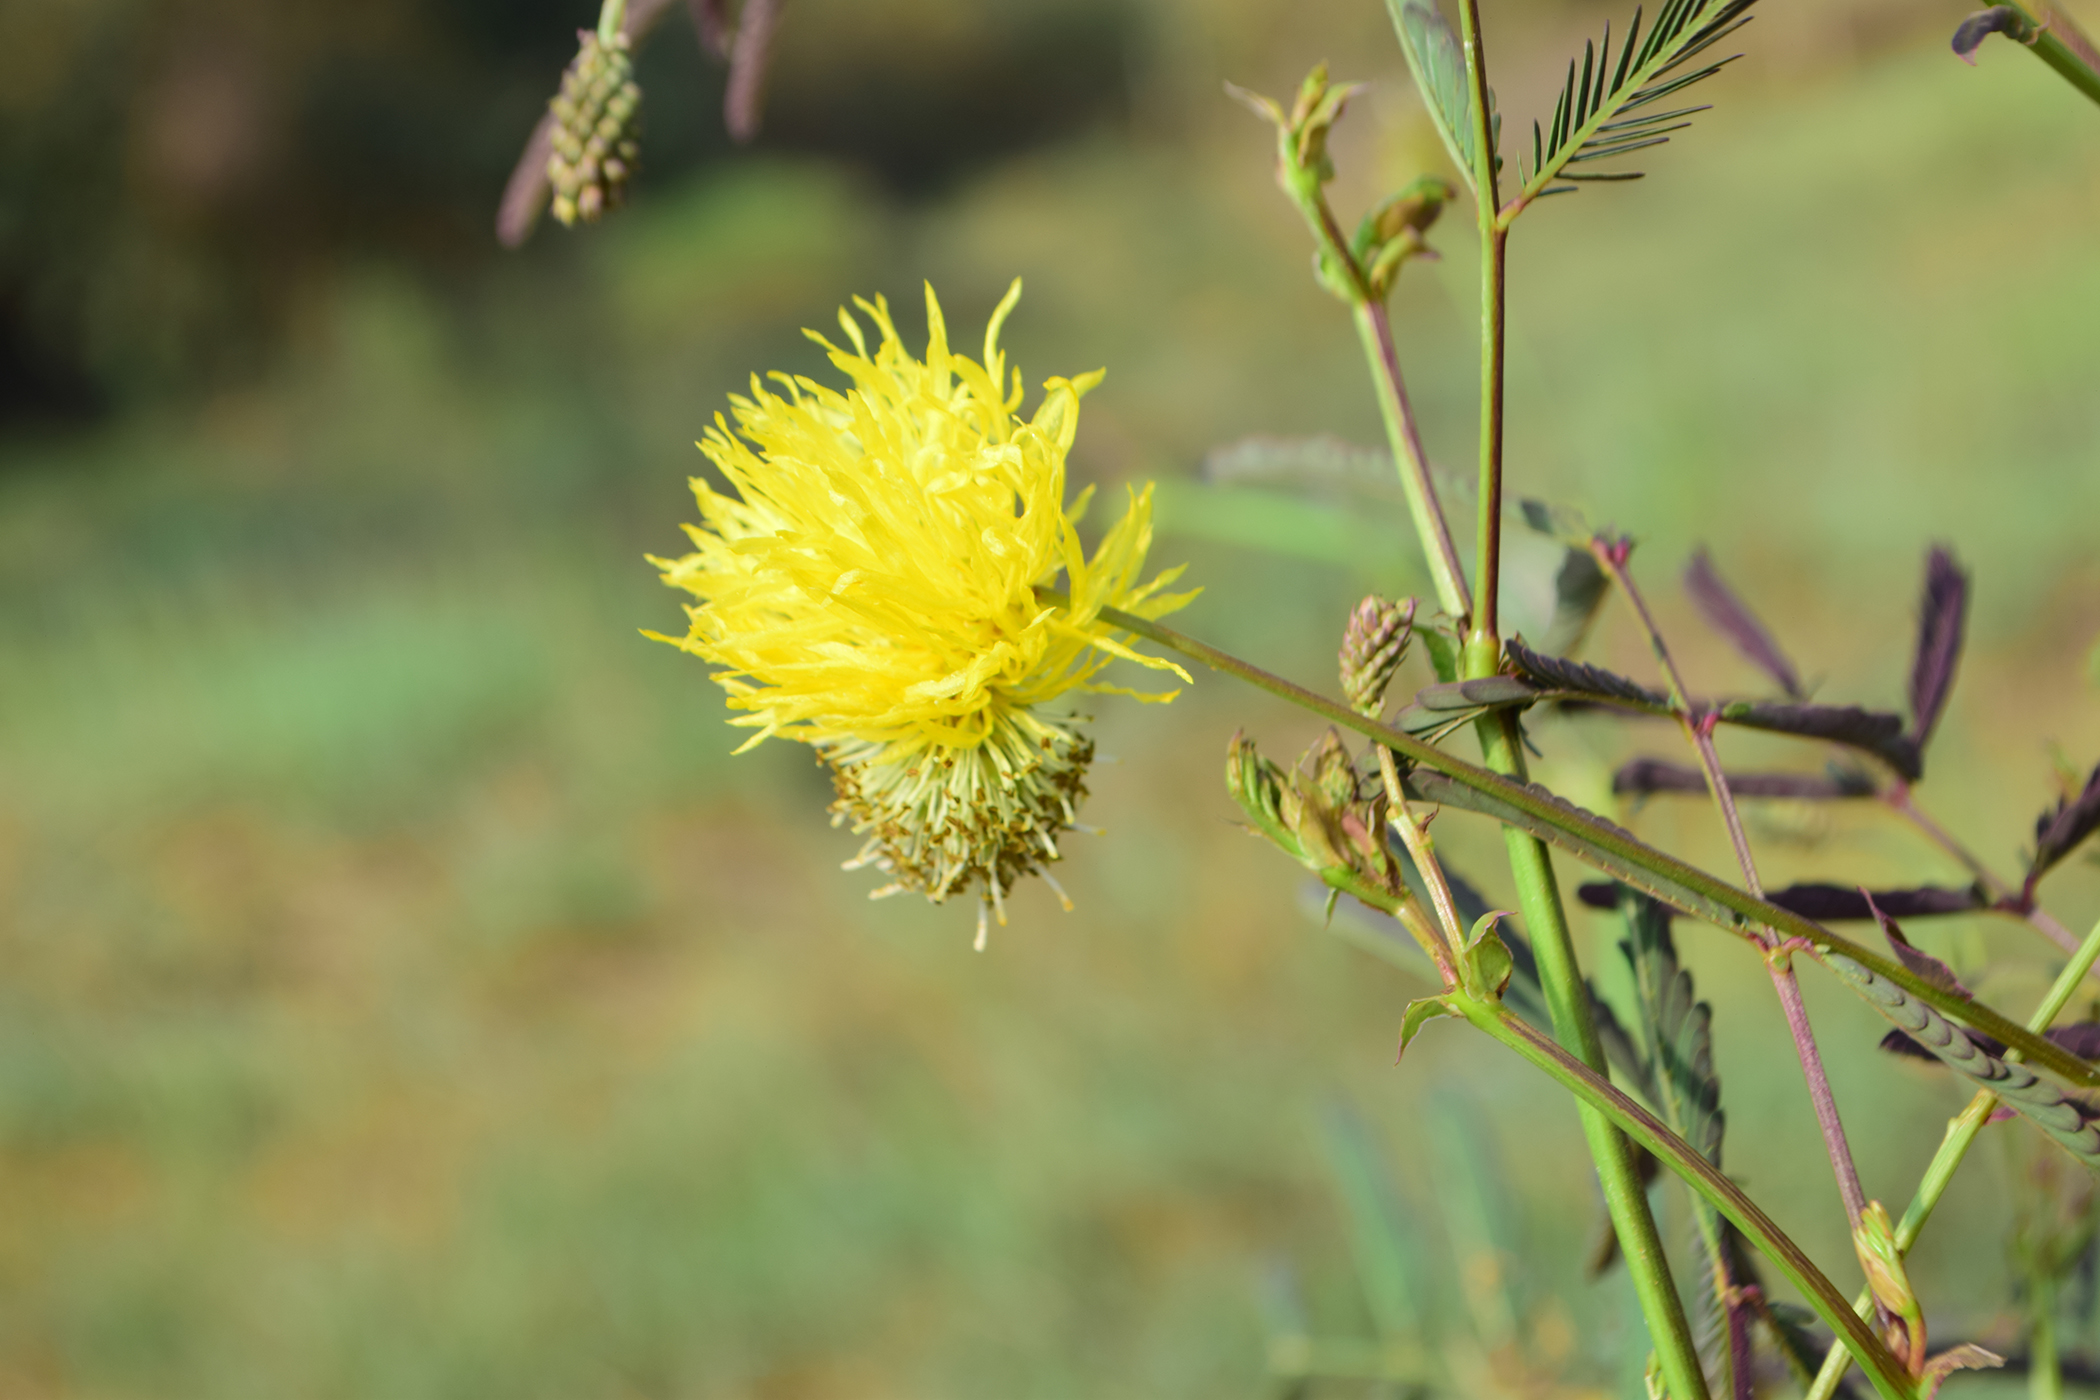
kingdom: Plantae
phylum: Tracheophyta
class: Magnoliopsida
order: Fabales
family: Fabaceae
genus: Neptunia
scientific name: Neptunia plena
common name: Dead and awake
